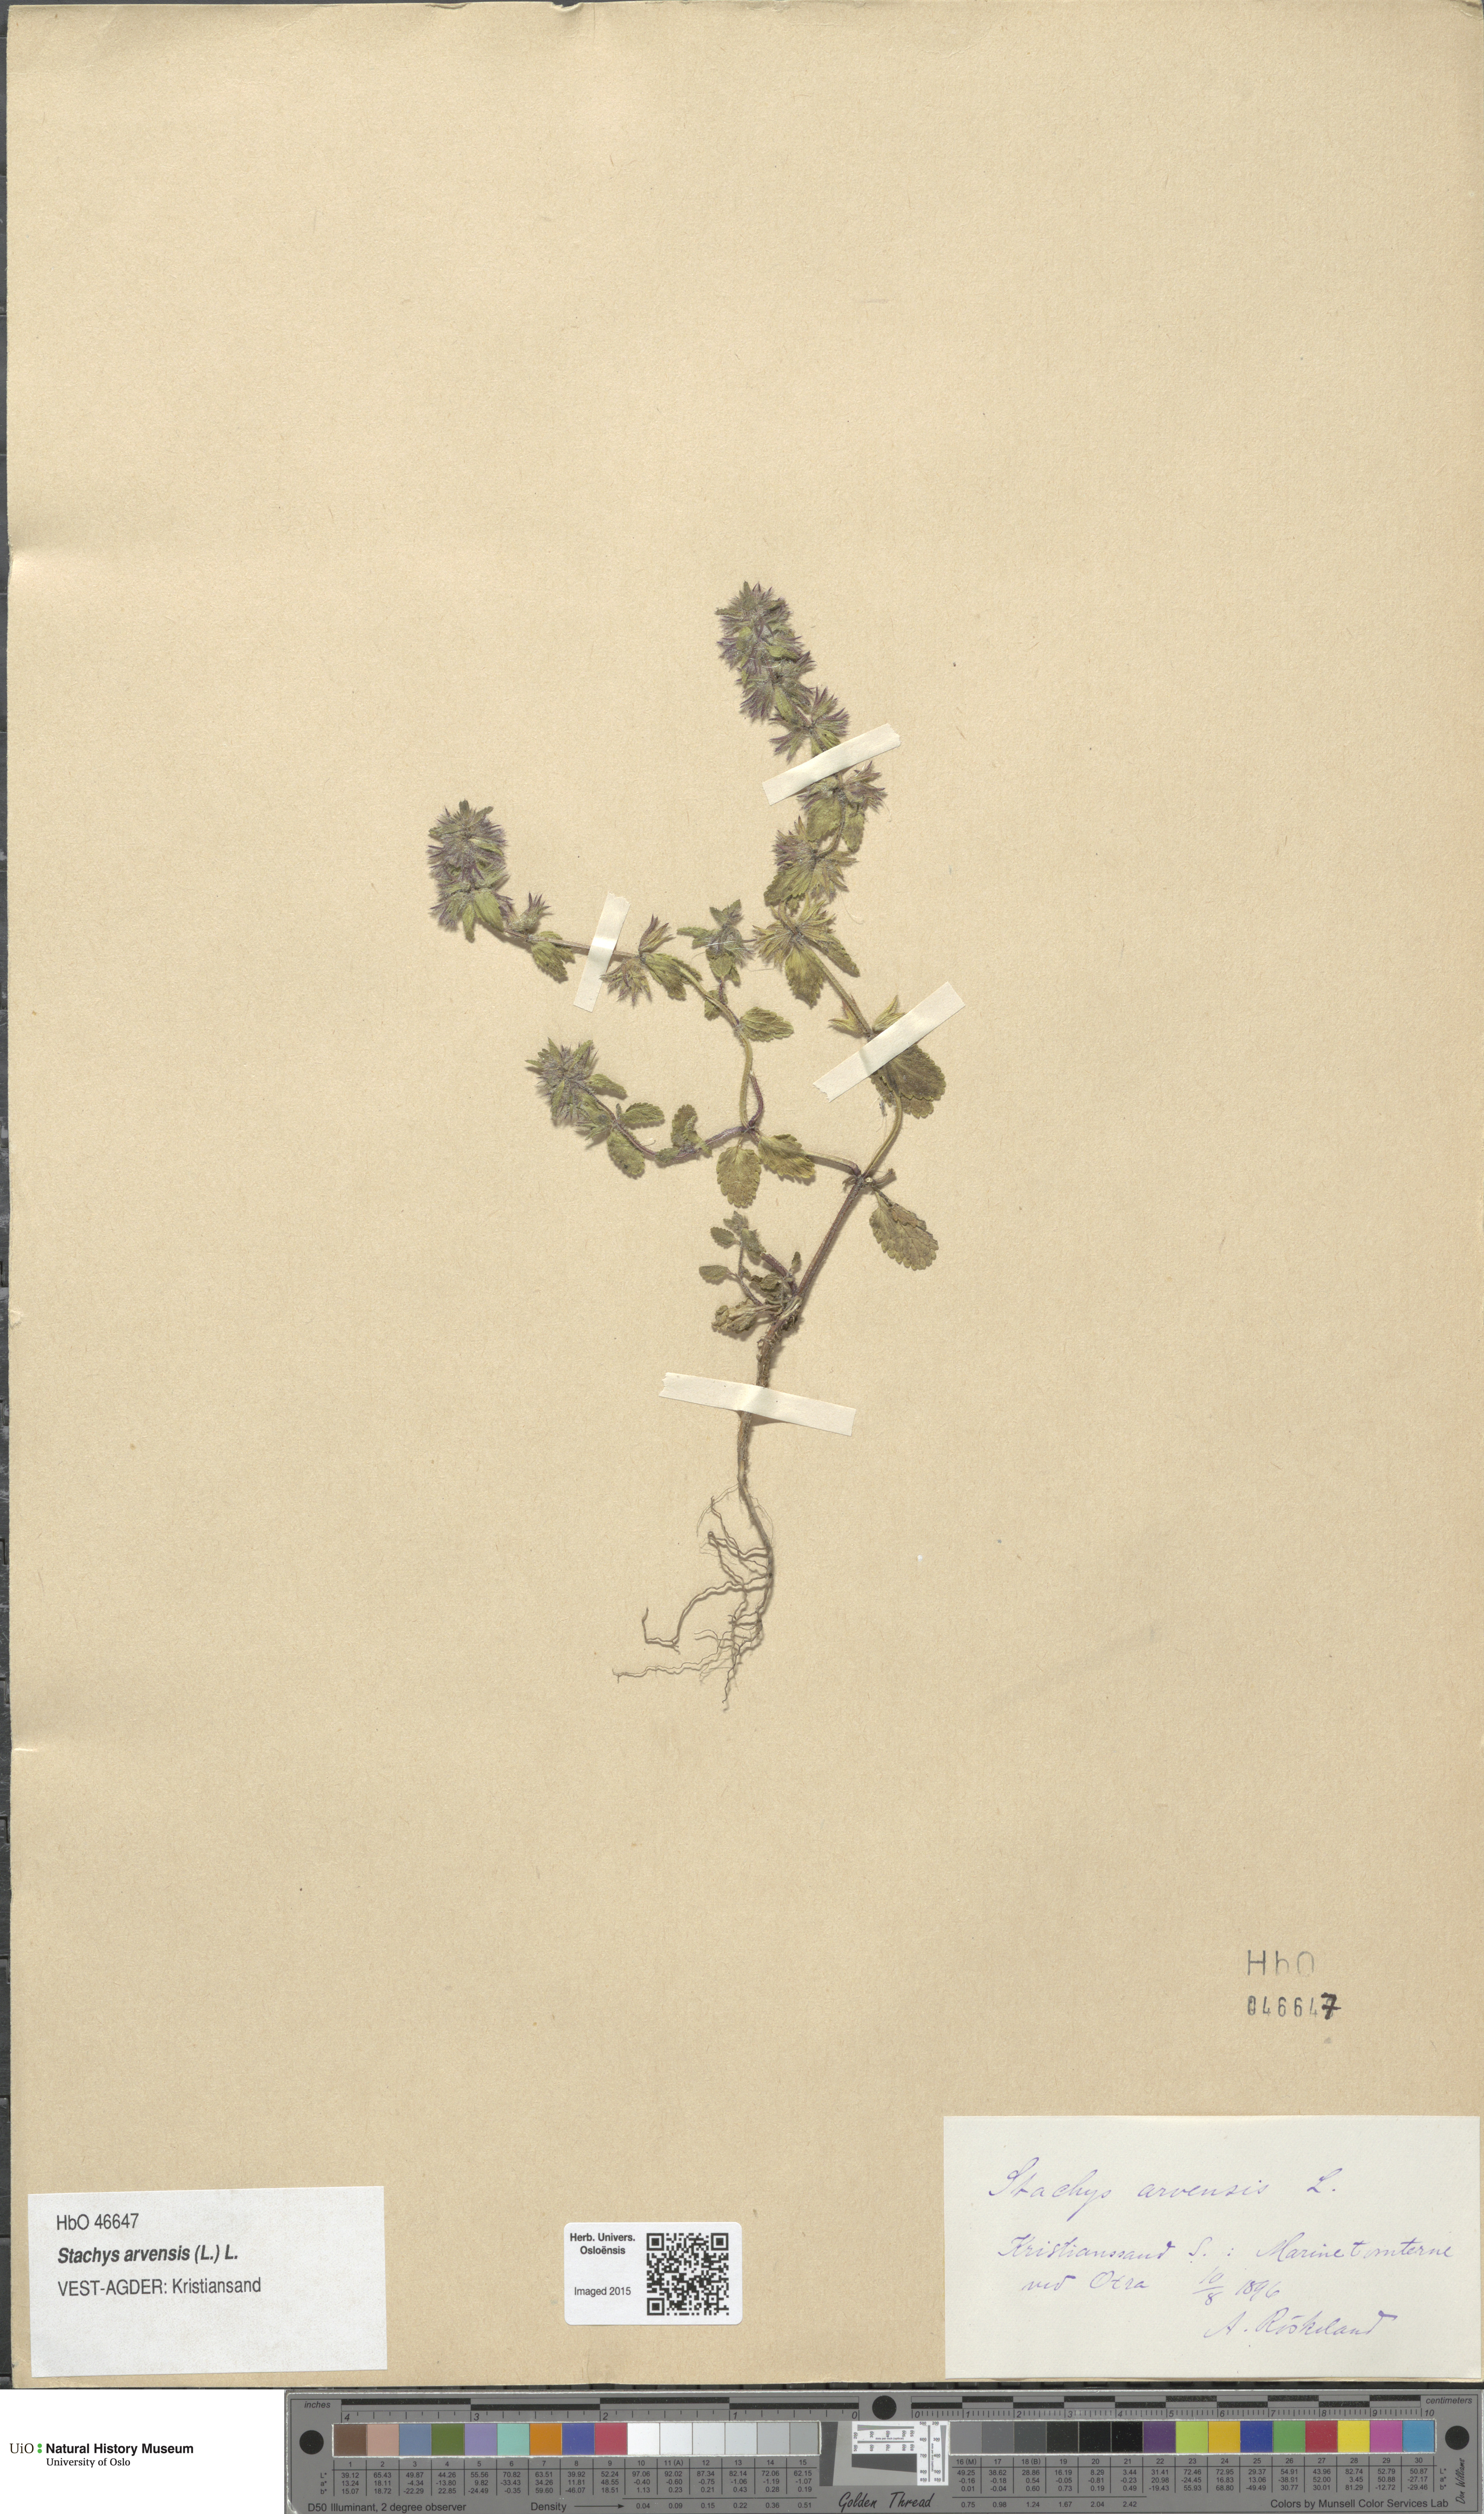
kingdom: Plantae
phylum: Tracheophyta
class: Magnoliopsida
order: Lamiales
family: Lamiaceae
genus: Stachys
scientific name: Stachys arvensis
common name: Field woundwort
